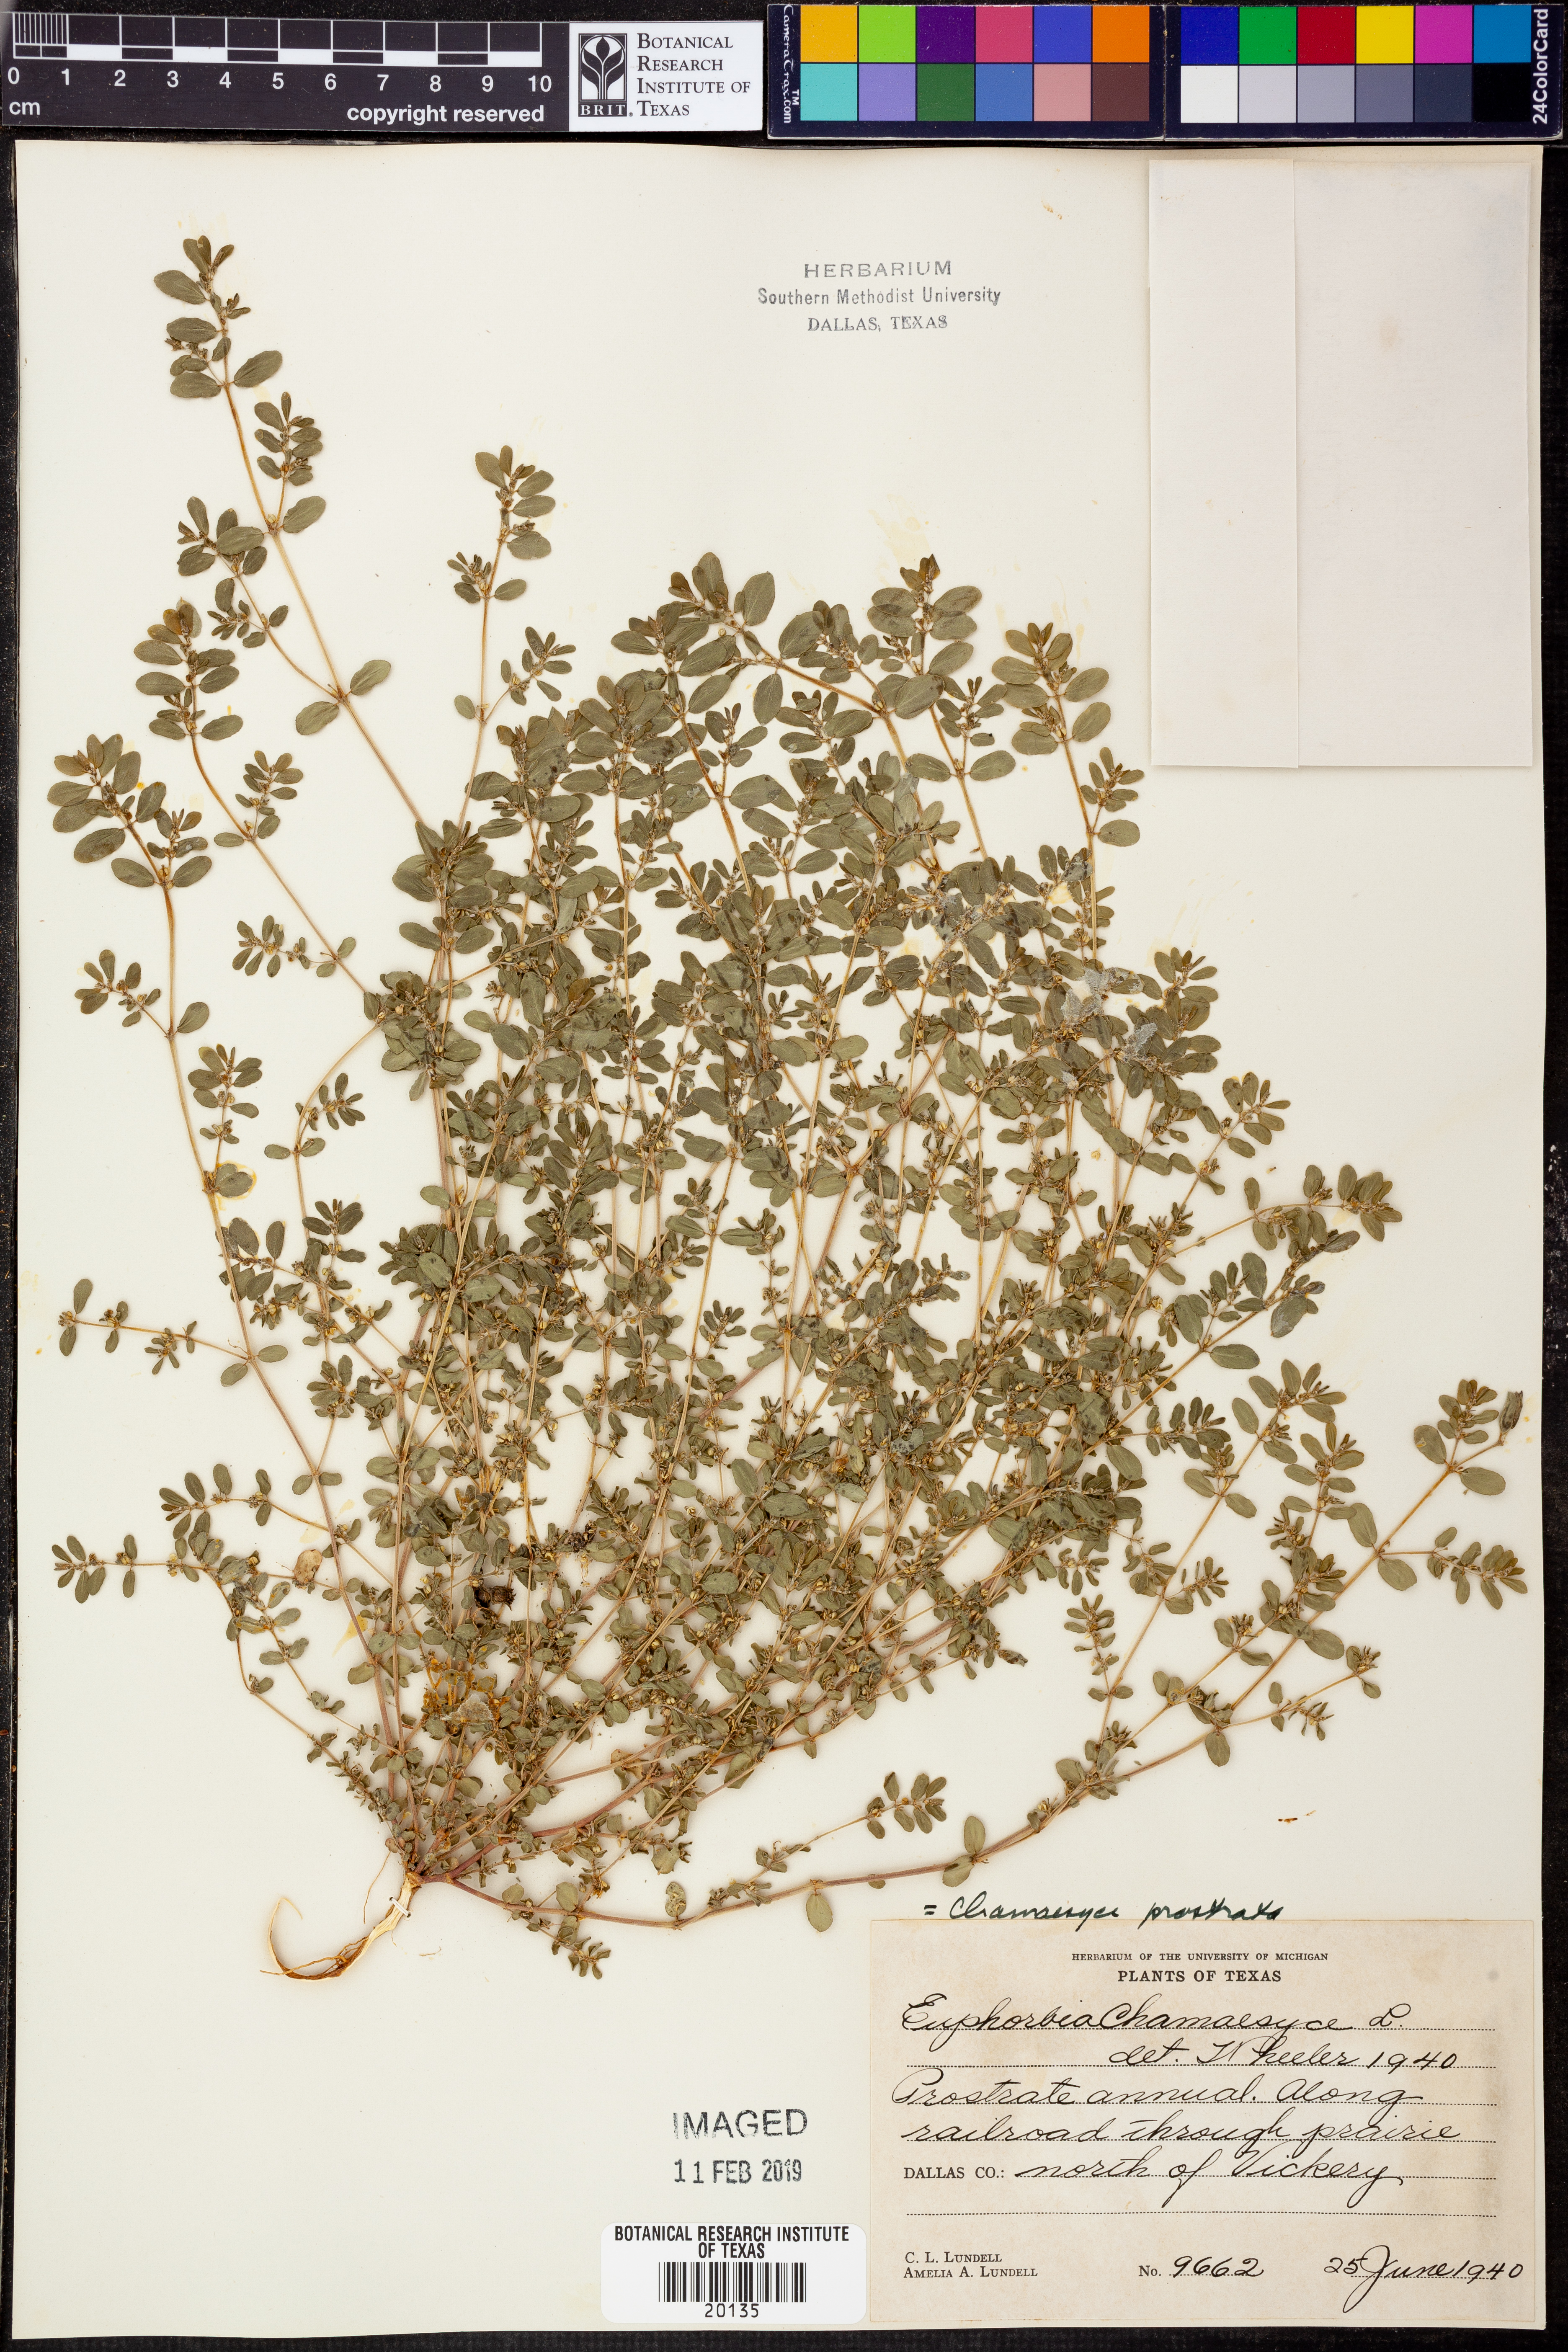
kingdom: Plantae
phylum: Tracheophyta
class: Magnoliopsida
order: Malpighiales
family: Euphorbiaceae
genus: Euphorbia
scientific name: Euphorbia prostrata
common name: Prostrate sandmat
